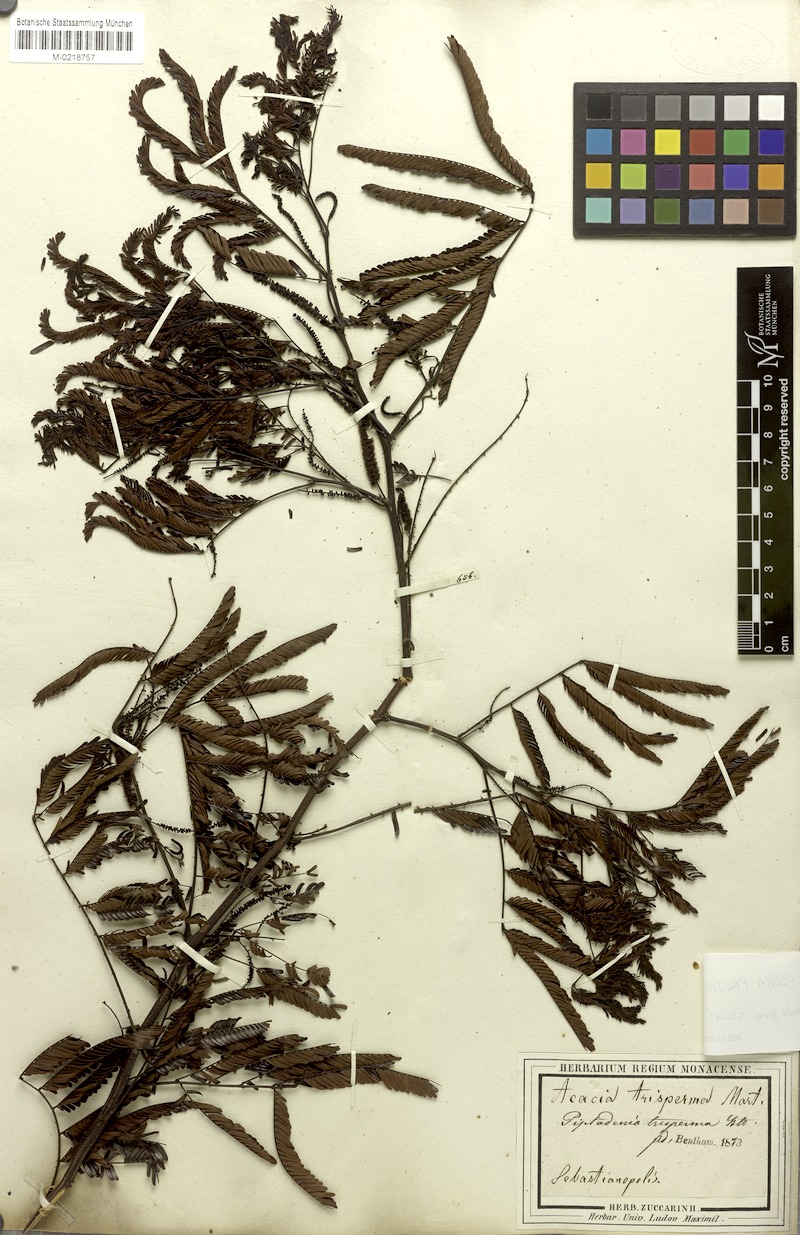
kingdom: Plantae
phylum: Tracheophyta
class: Magnoliopsida
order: Fabales
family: Fabaceae
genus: Piptadenia
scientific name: Piptadenia trisperma
